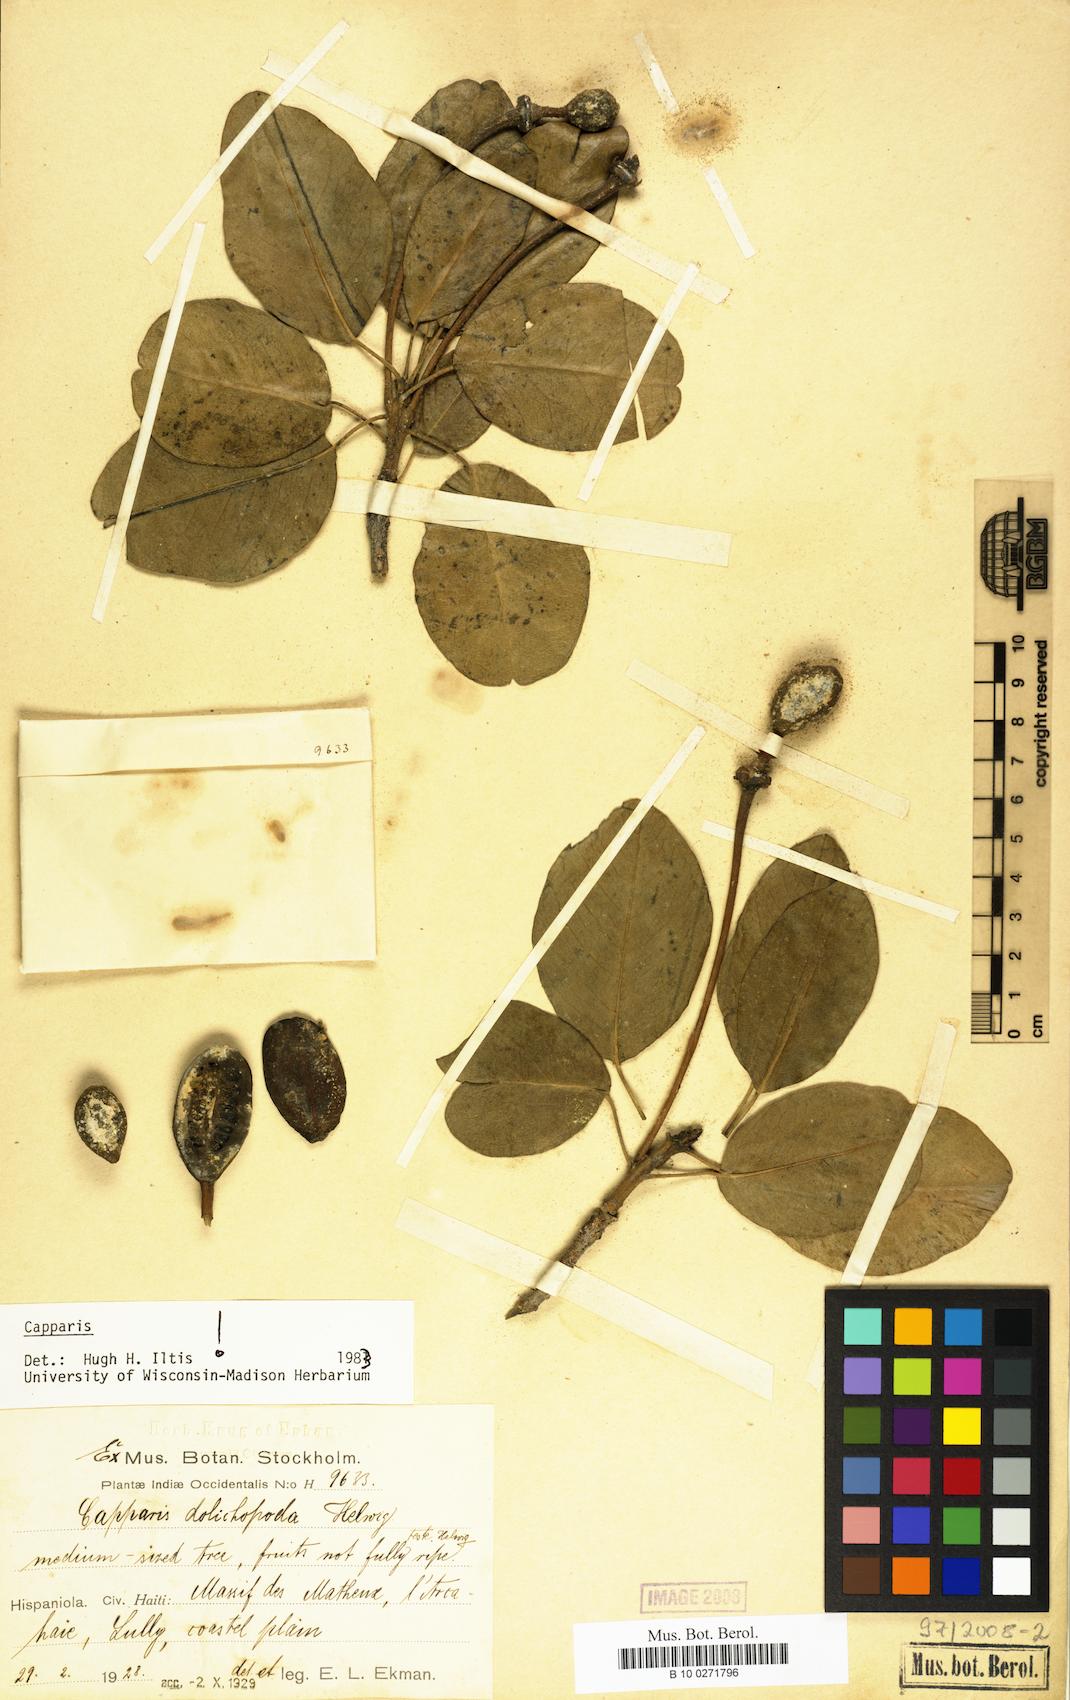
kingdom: Plantae
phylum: Tracheophyta
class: Magnoliopsida
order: Brassicales
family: Capparaceae
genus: Hispaniolanthus
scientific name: Hispaniolanthus dolichopodus
